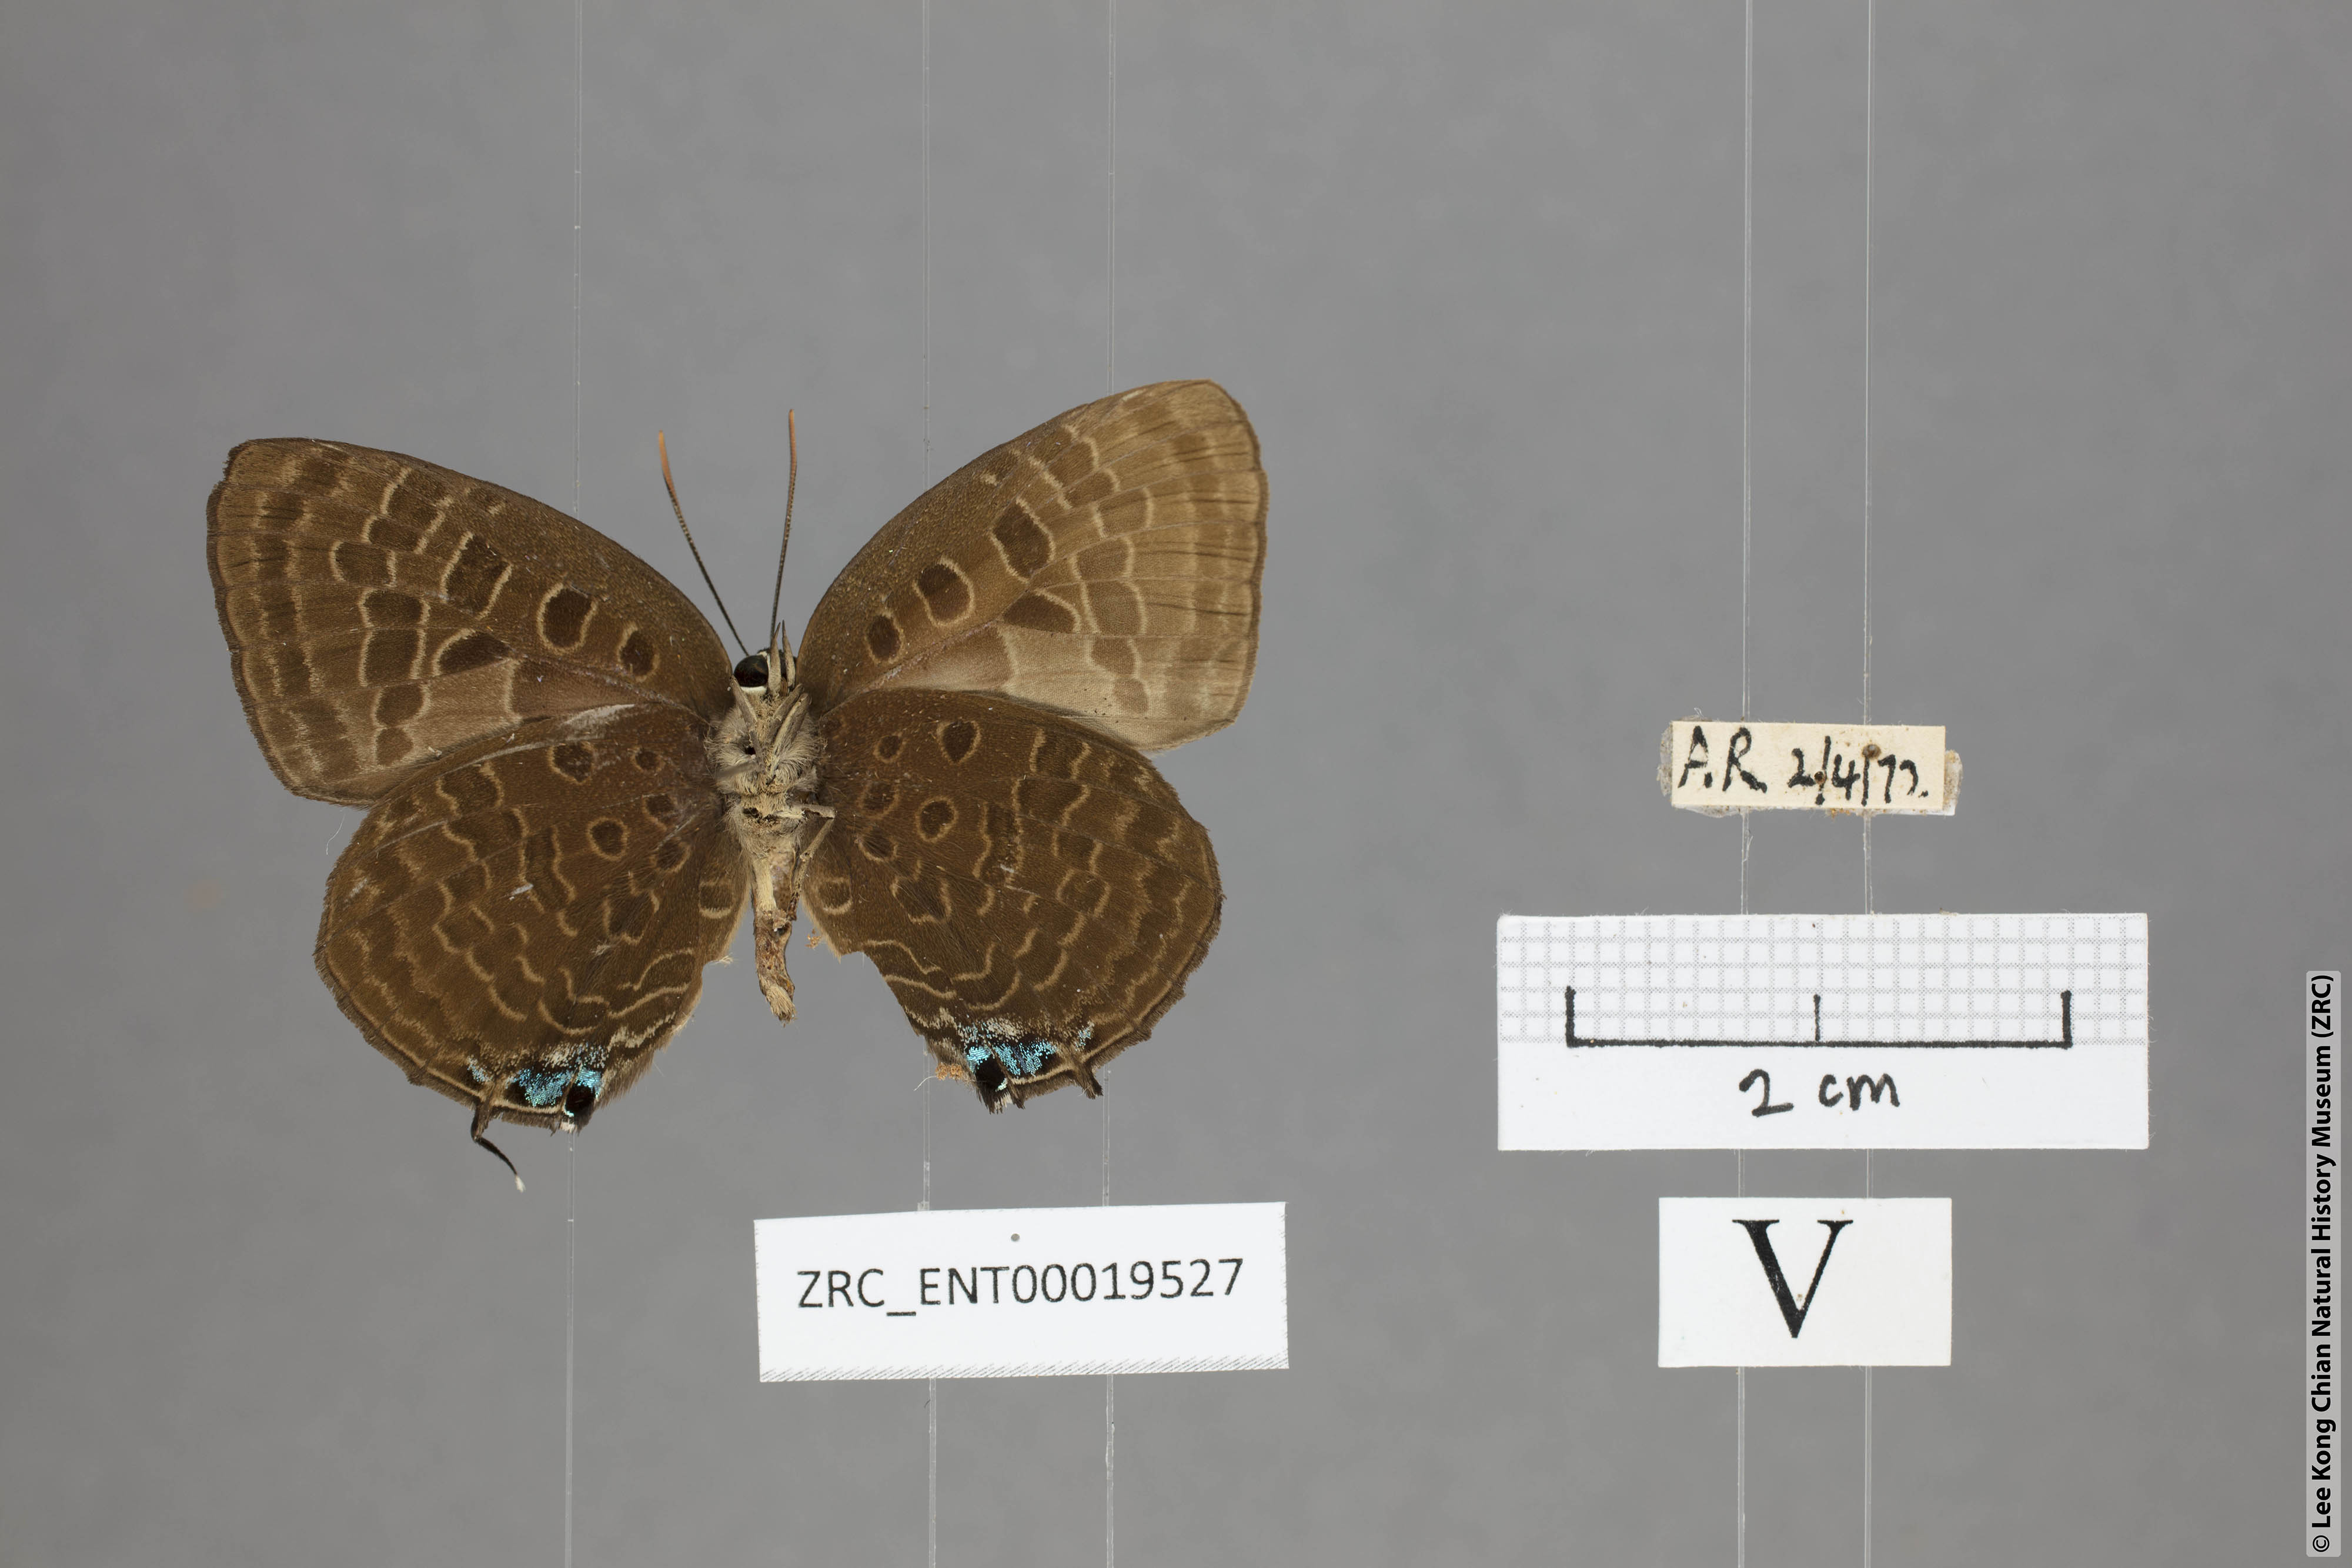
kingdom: Animalia
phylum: Arthropoda
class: Insecta
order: Lepidoptera
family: Lycaenidae
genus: Arhopala
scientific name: Arhopala horsfieldi
